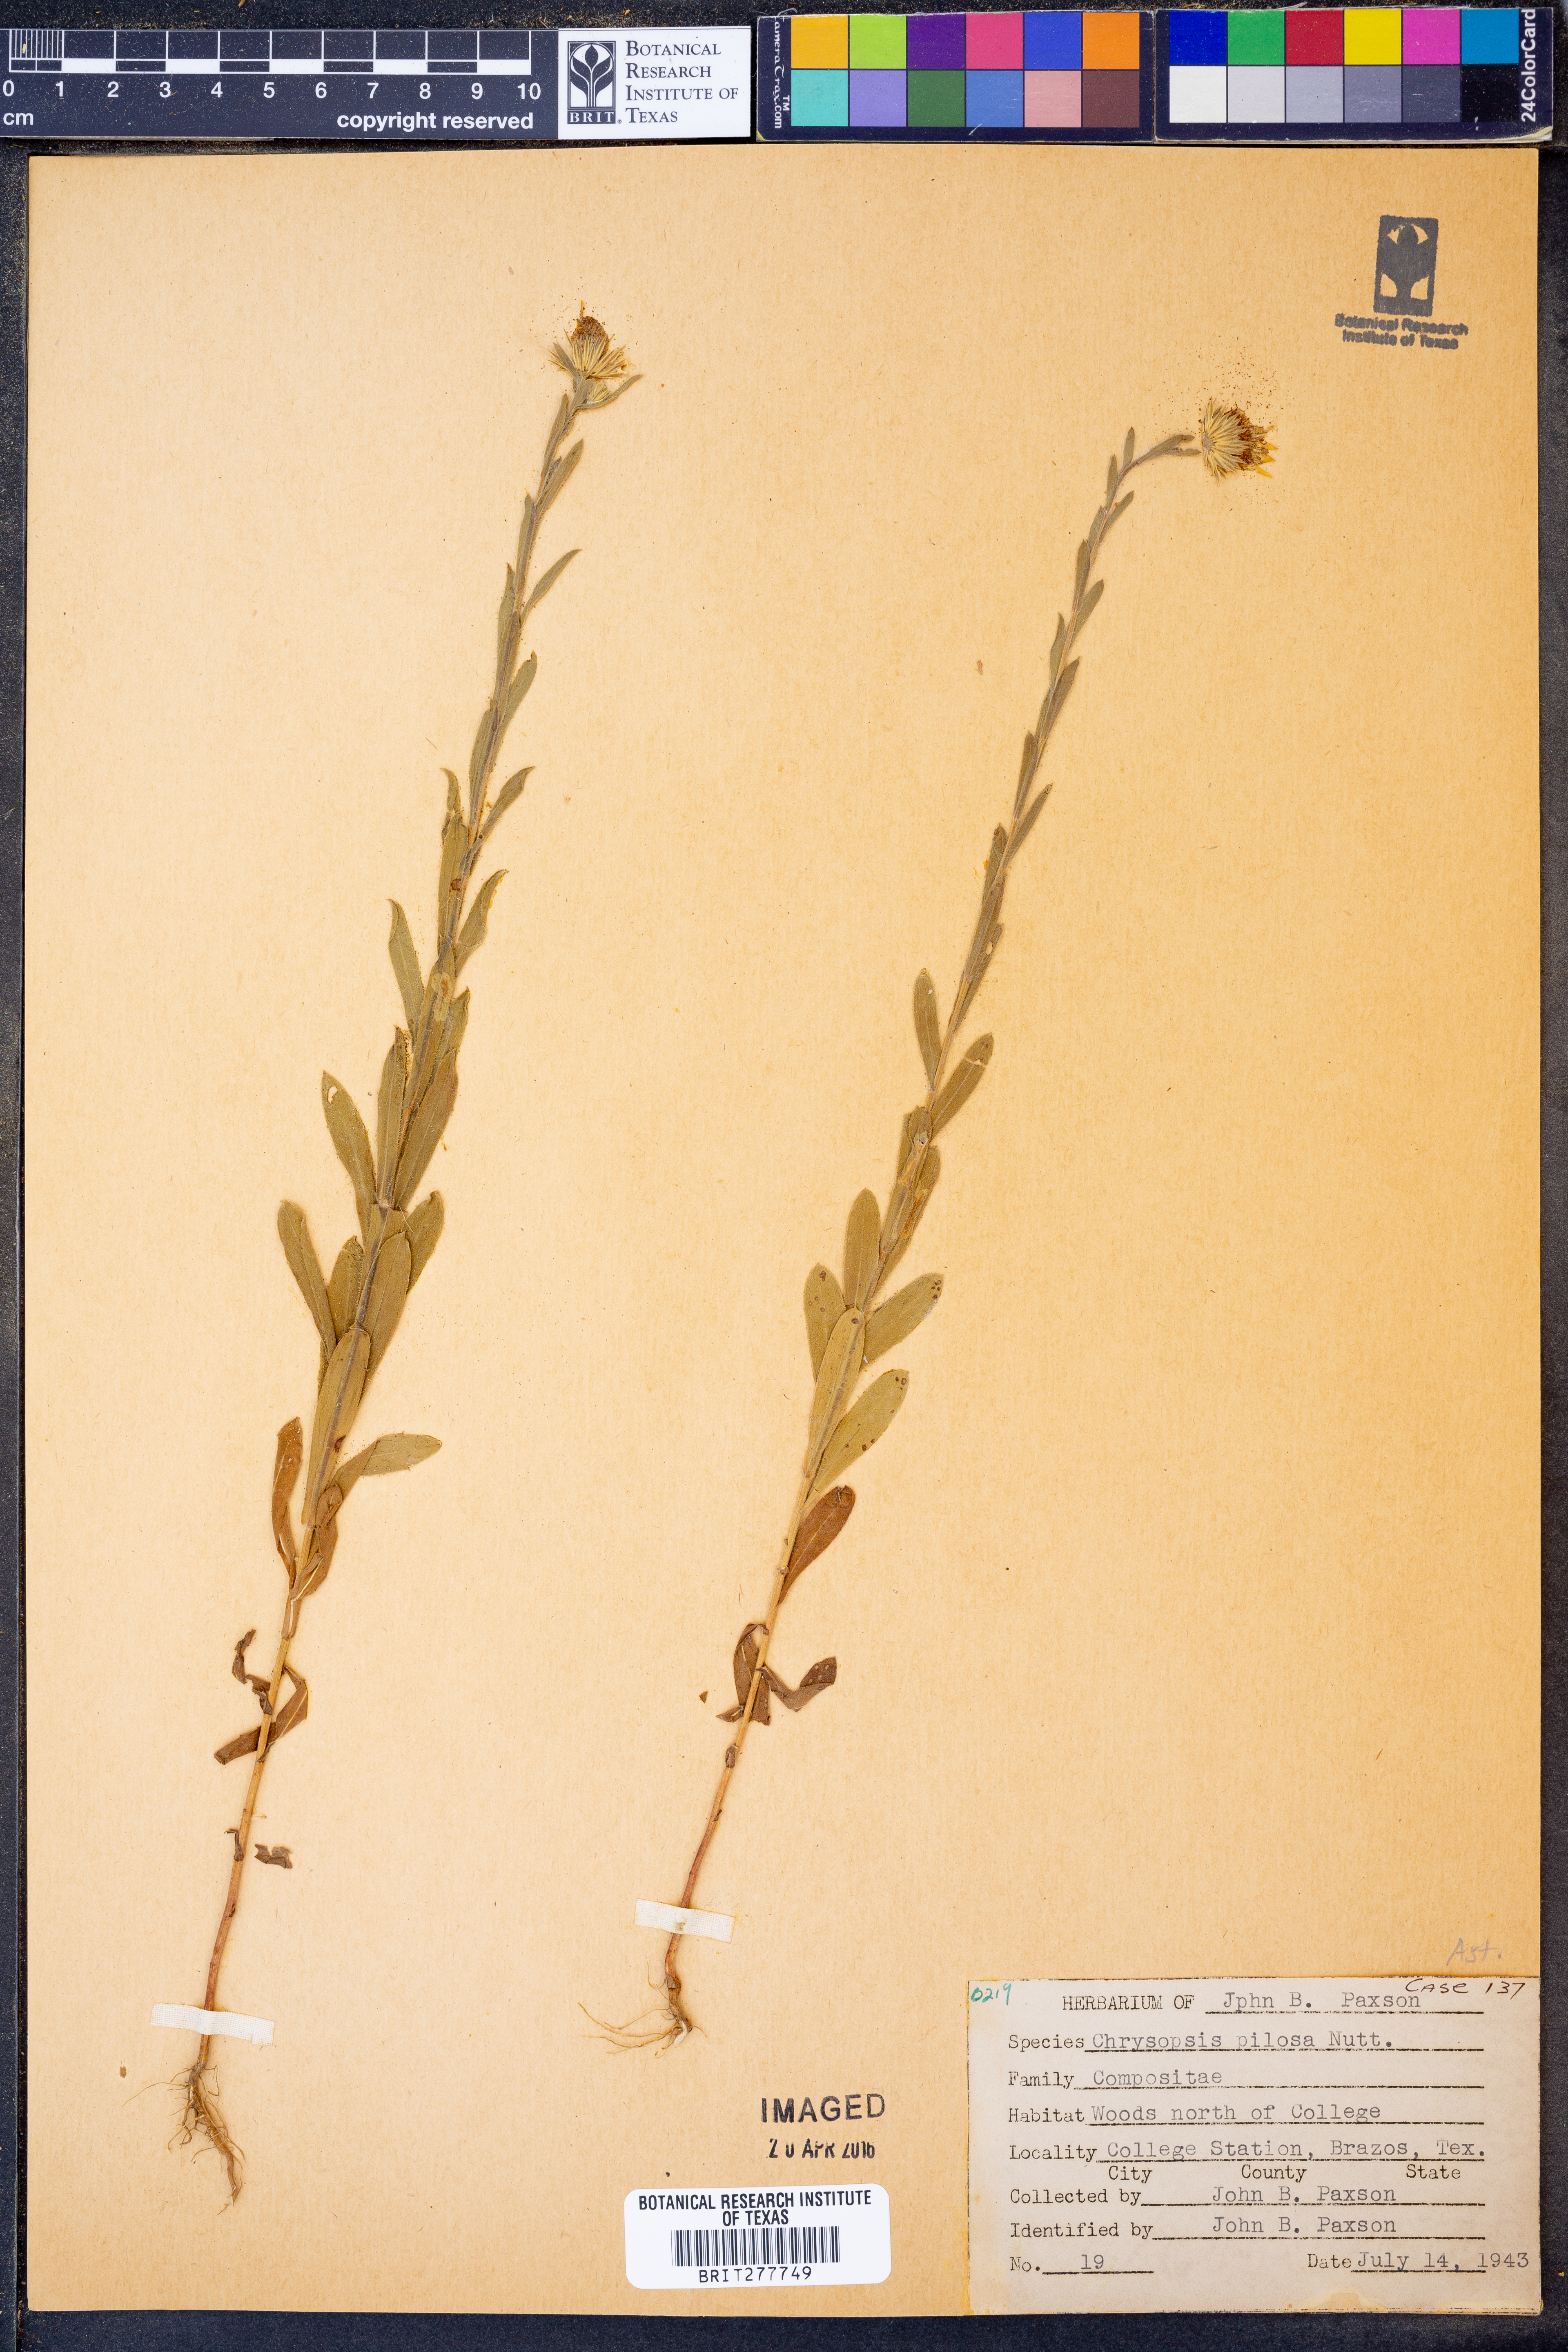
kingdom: Plantae
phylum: Tracheophyta
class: Magnoliopsida
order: Asterales
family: Asteraceae
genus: Bradburia
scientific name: Bradburia pilosa
